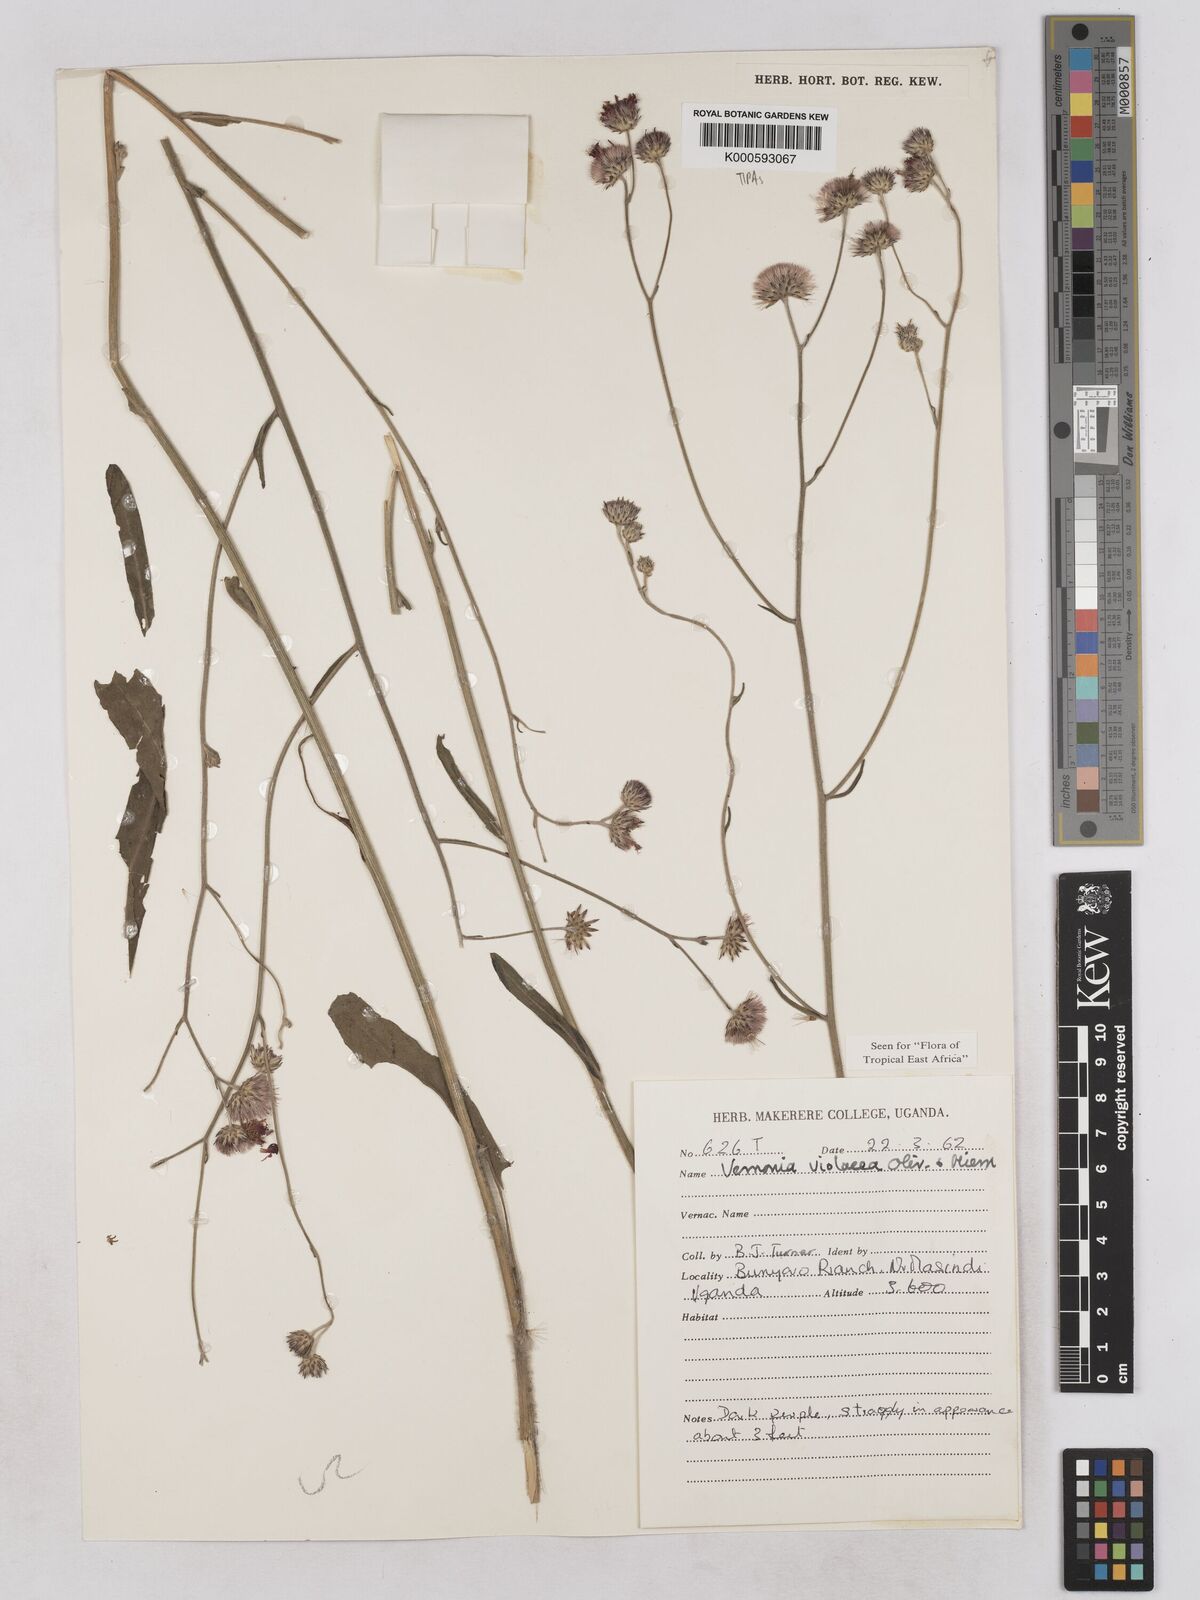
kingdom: Plantae
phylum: Tracheophyta
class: Magnoliopsida
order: Asterales
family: Asteraceae
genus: Vernonia
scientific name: Vernonia violacea
